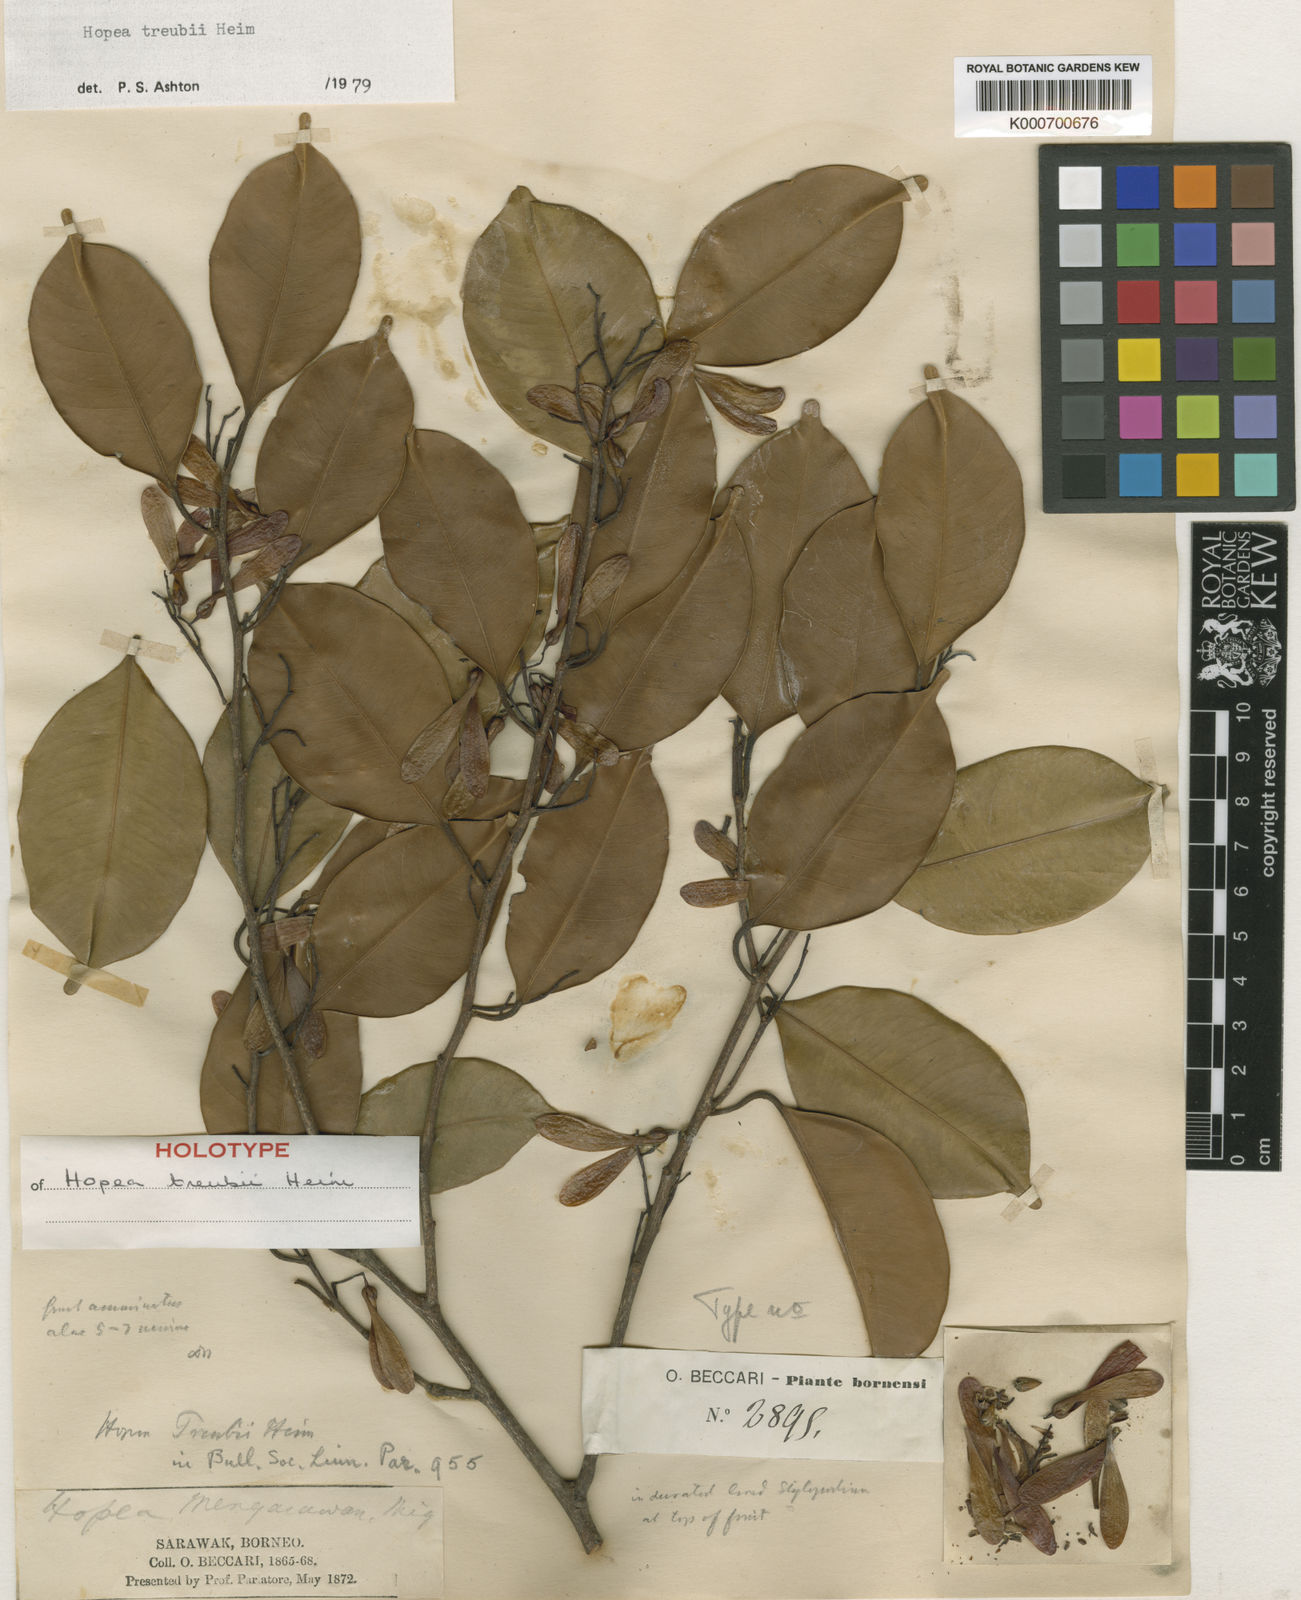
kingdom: Plantae
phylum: Tracheophyta
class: Magnoliopsida
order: Malvales
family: Dipterocarpaceae
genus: Hopea
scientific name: Hopea treubii
